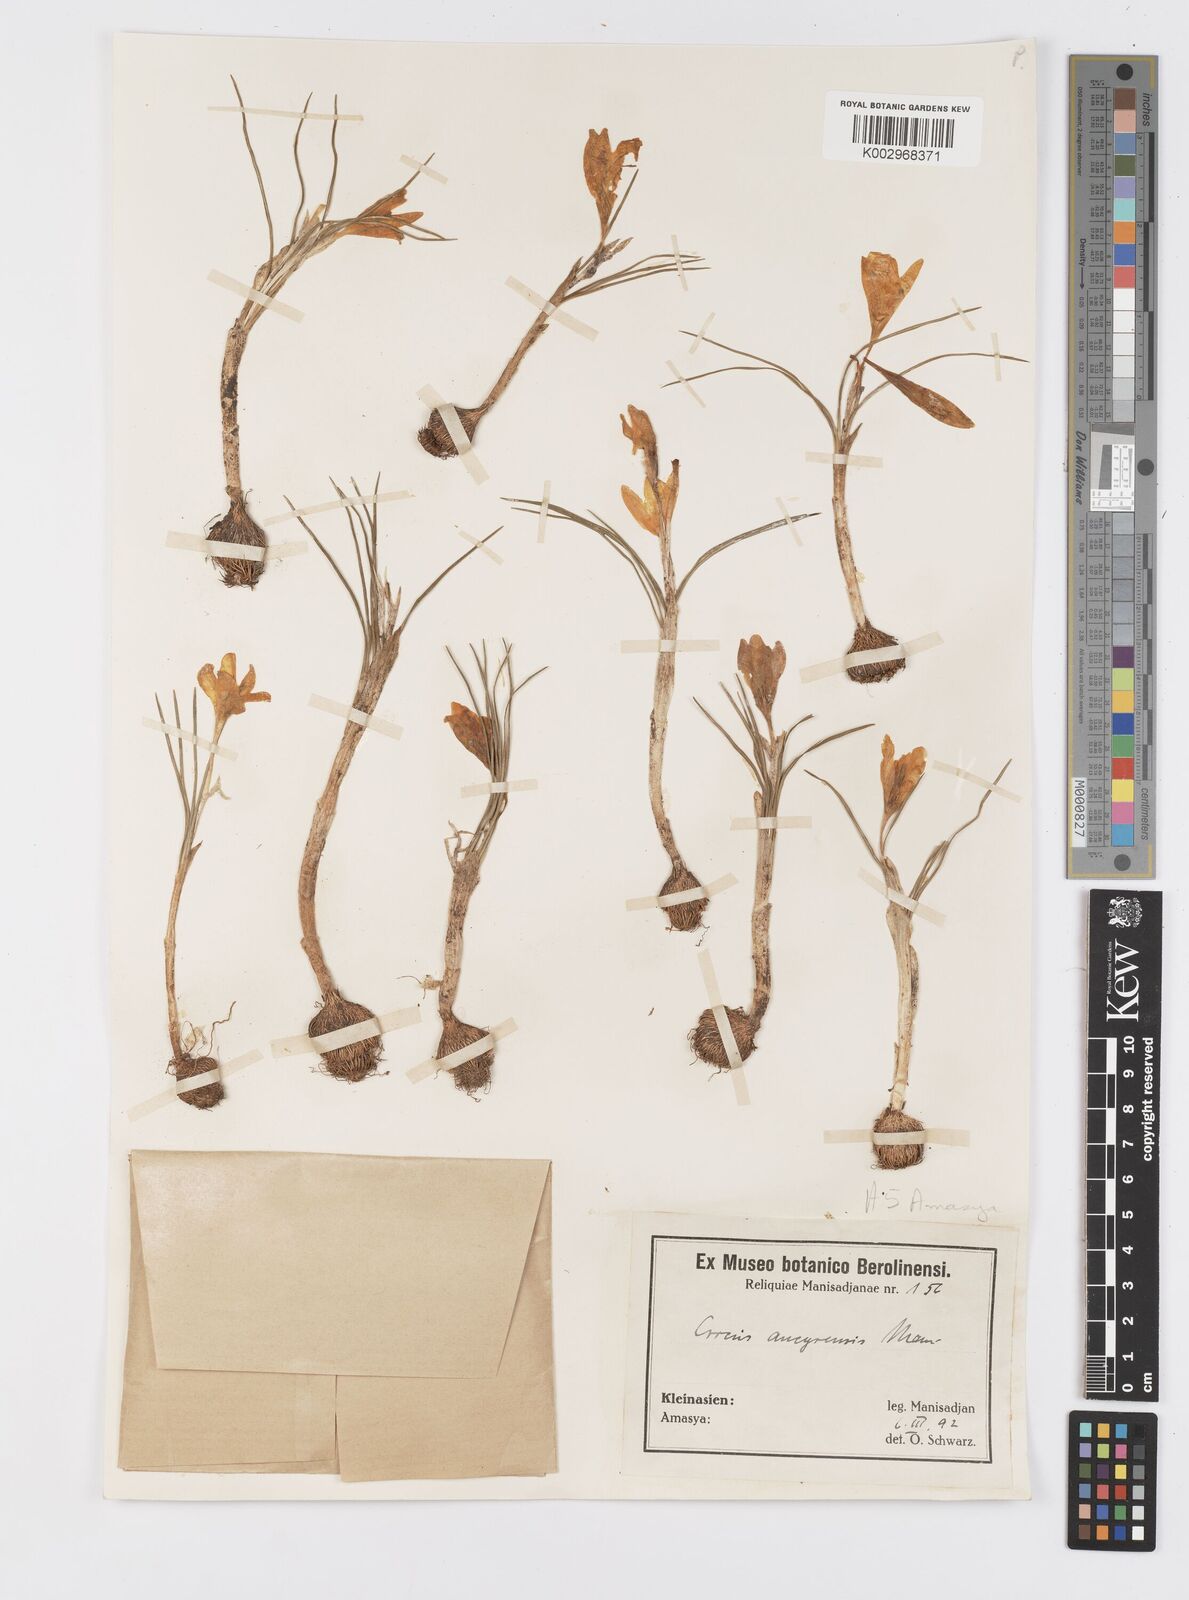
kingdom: Plantae
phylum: Tracheophyta
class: Liliopsida
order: Asparagales
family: Iridaceae
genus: Crocus
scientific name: Crocus ancyrensis
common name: Ankara crocus
